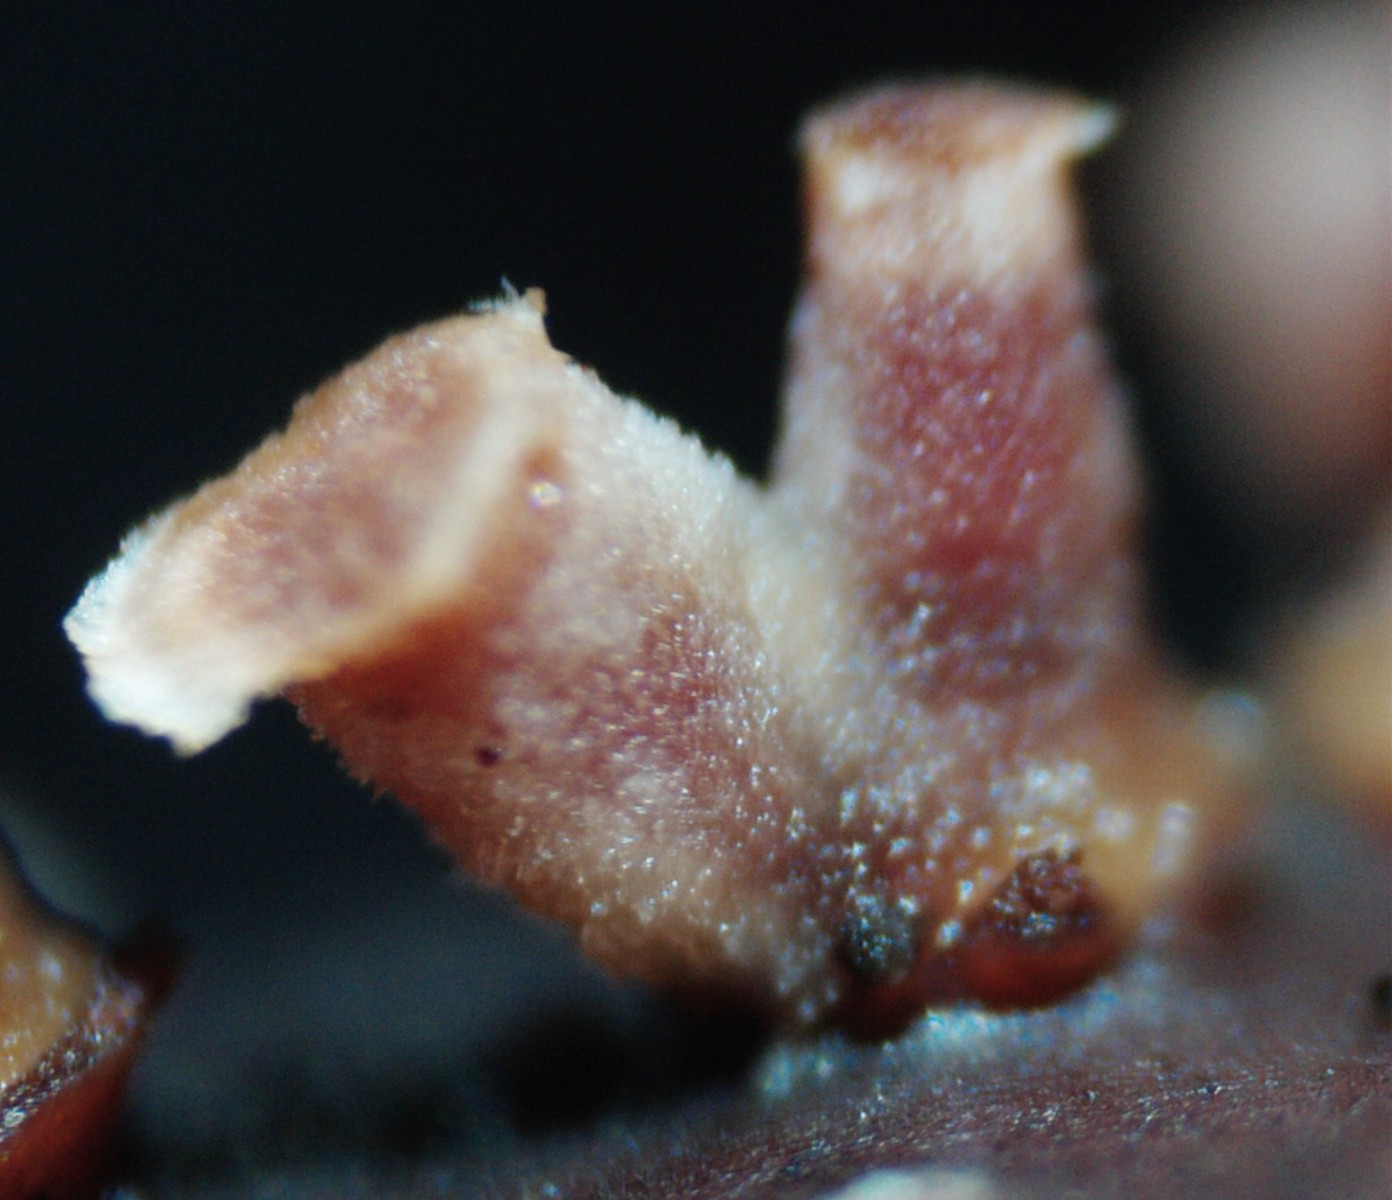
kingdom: Fungi
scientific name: Fungi
